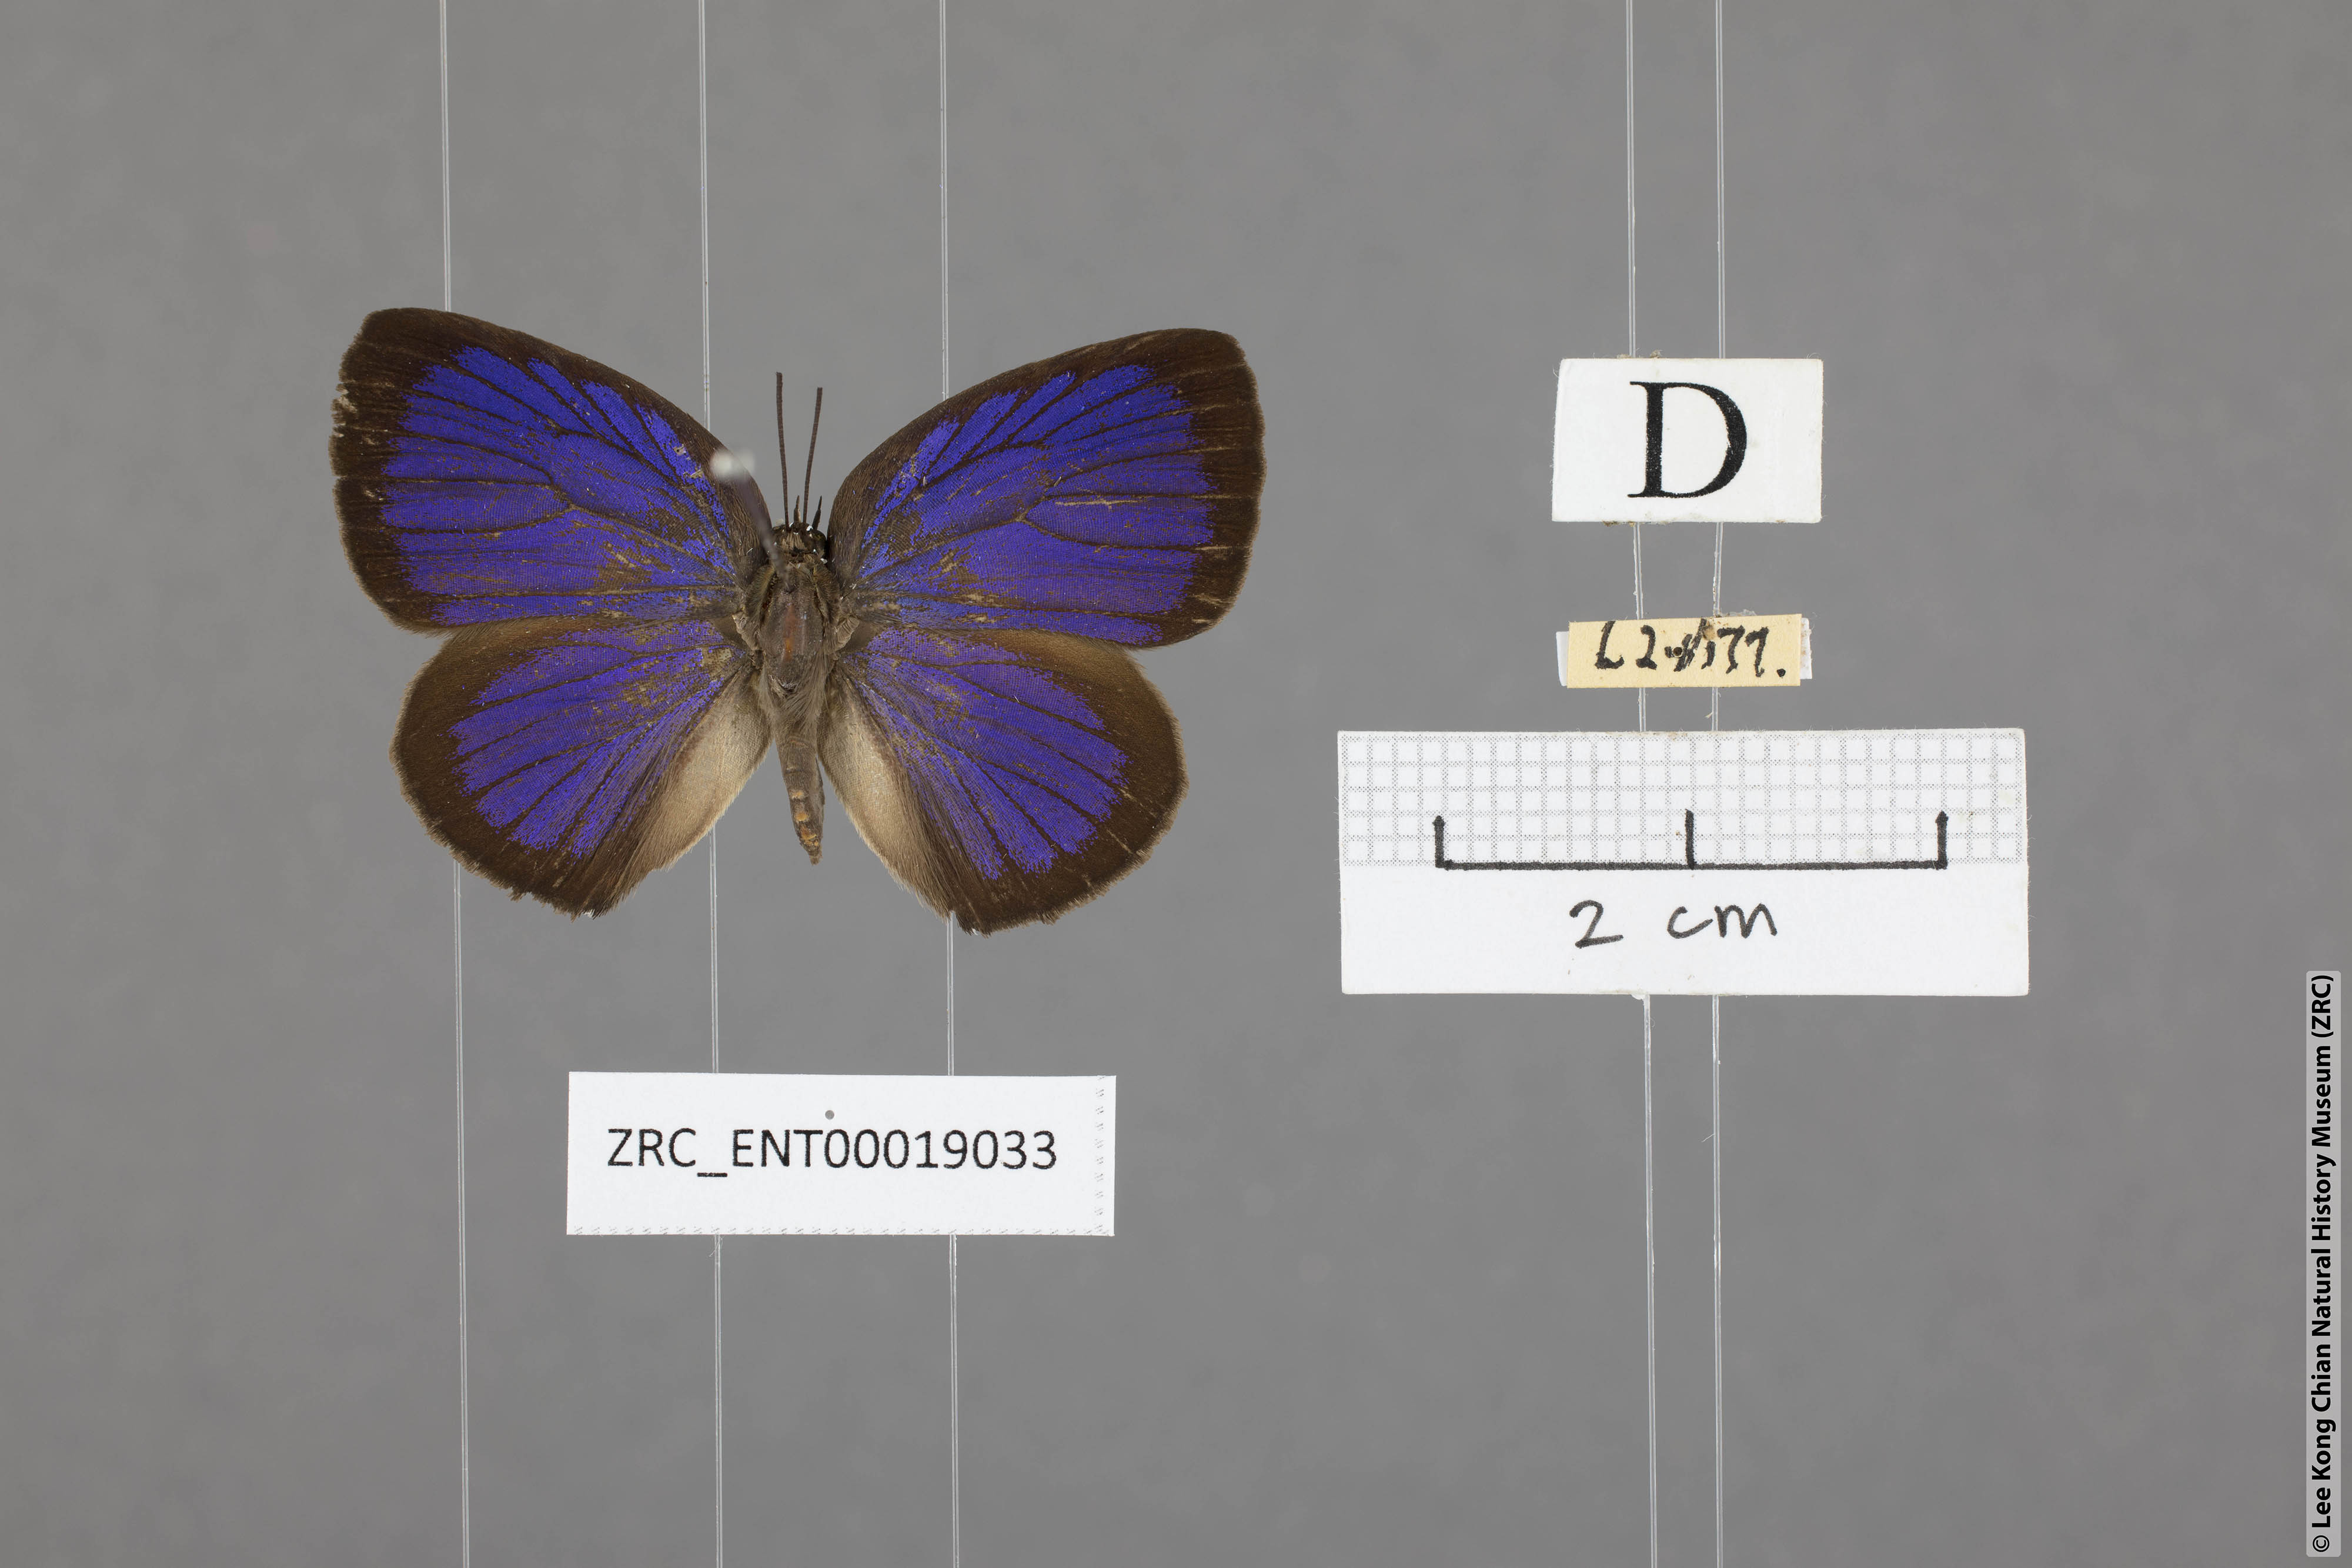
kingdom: Animalia
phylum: Arthropoda
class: Insecta
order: Lepidoptera
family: Lycaenidae
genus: Arhopala
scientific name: Arhopala agesilaus
